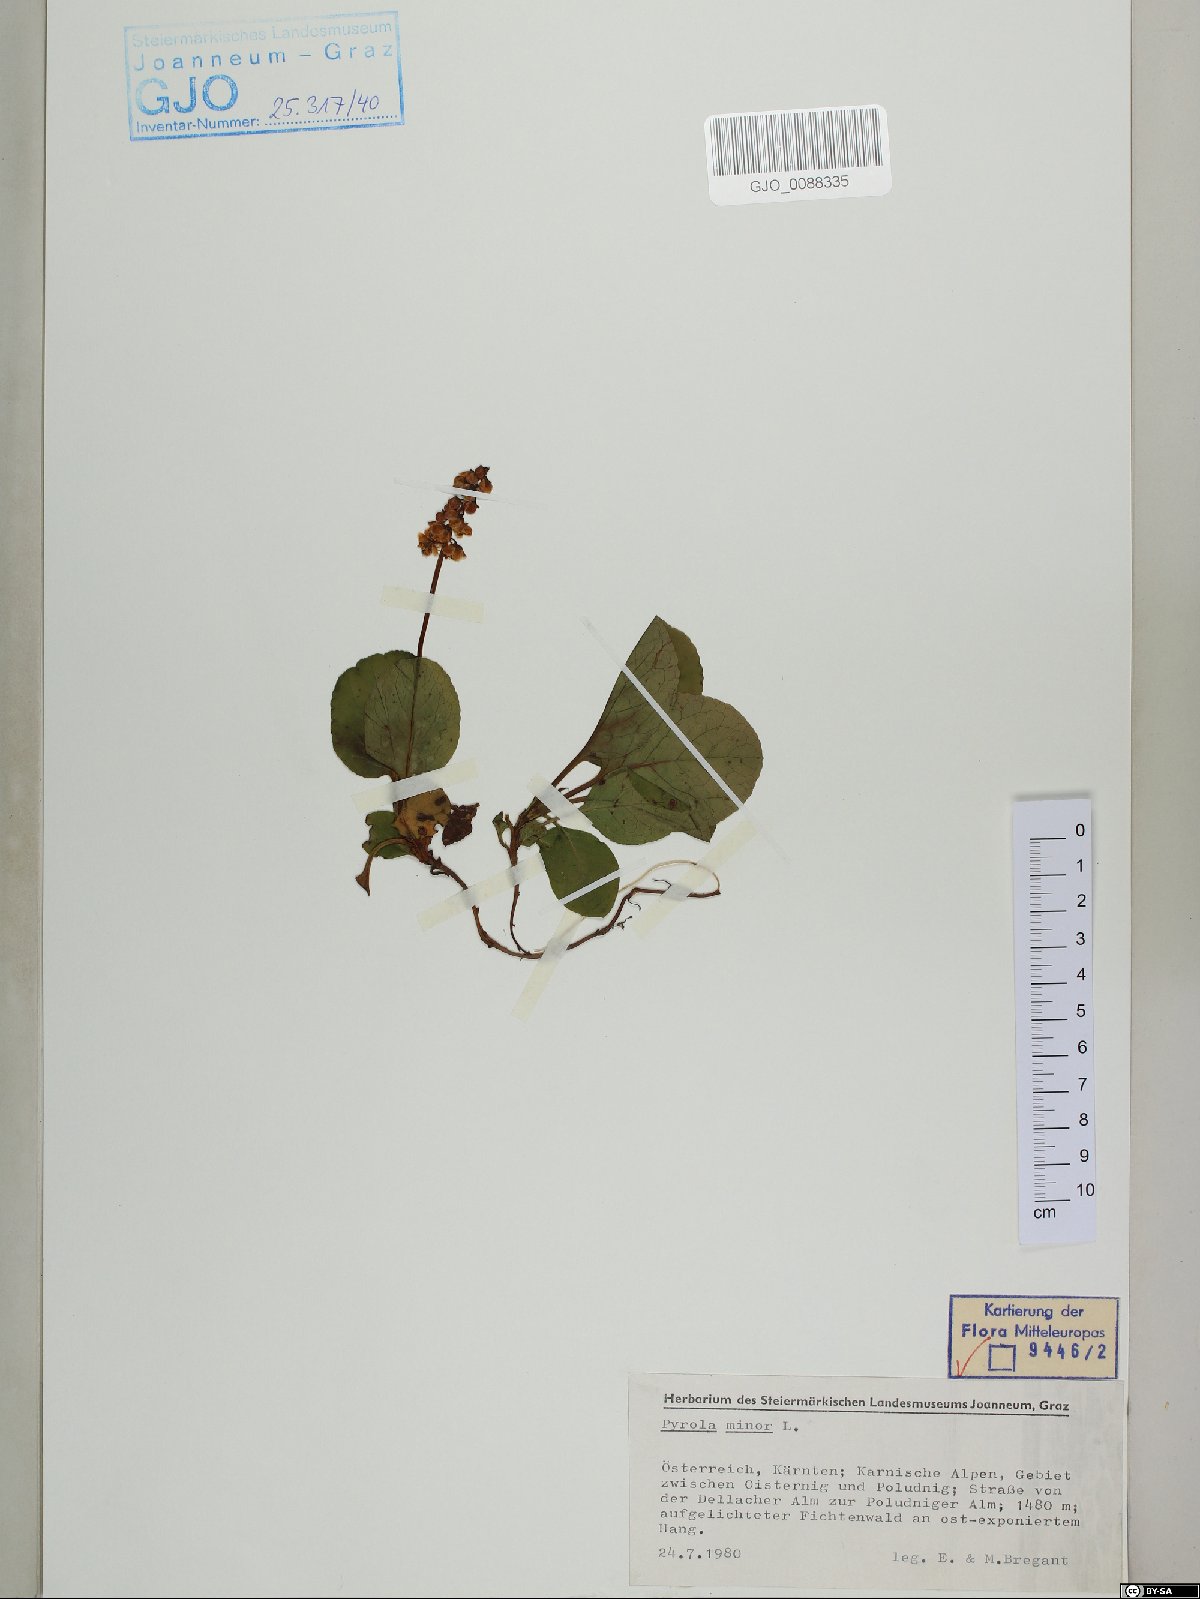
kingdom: Plantae
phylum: Tracheophyta
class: Magnoliopsida
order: Ericales
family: Ericaceae
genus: Pyrola
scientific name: Pyrola minor
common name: Common wintergreen
